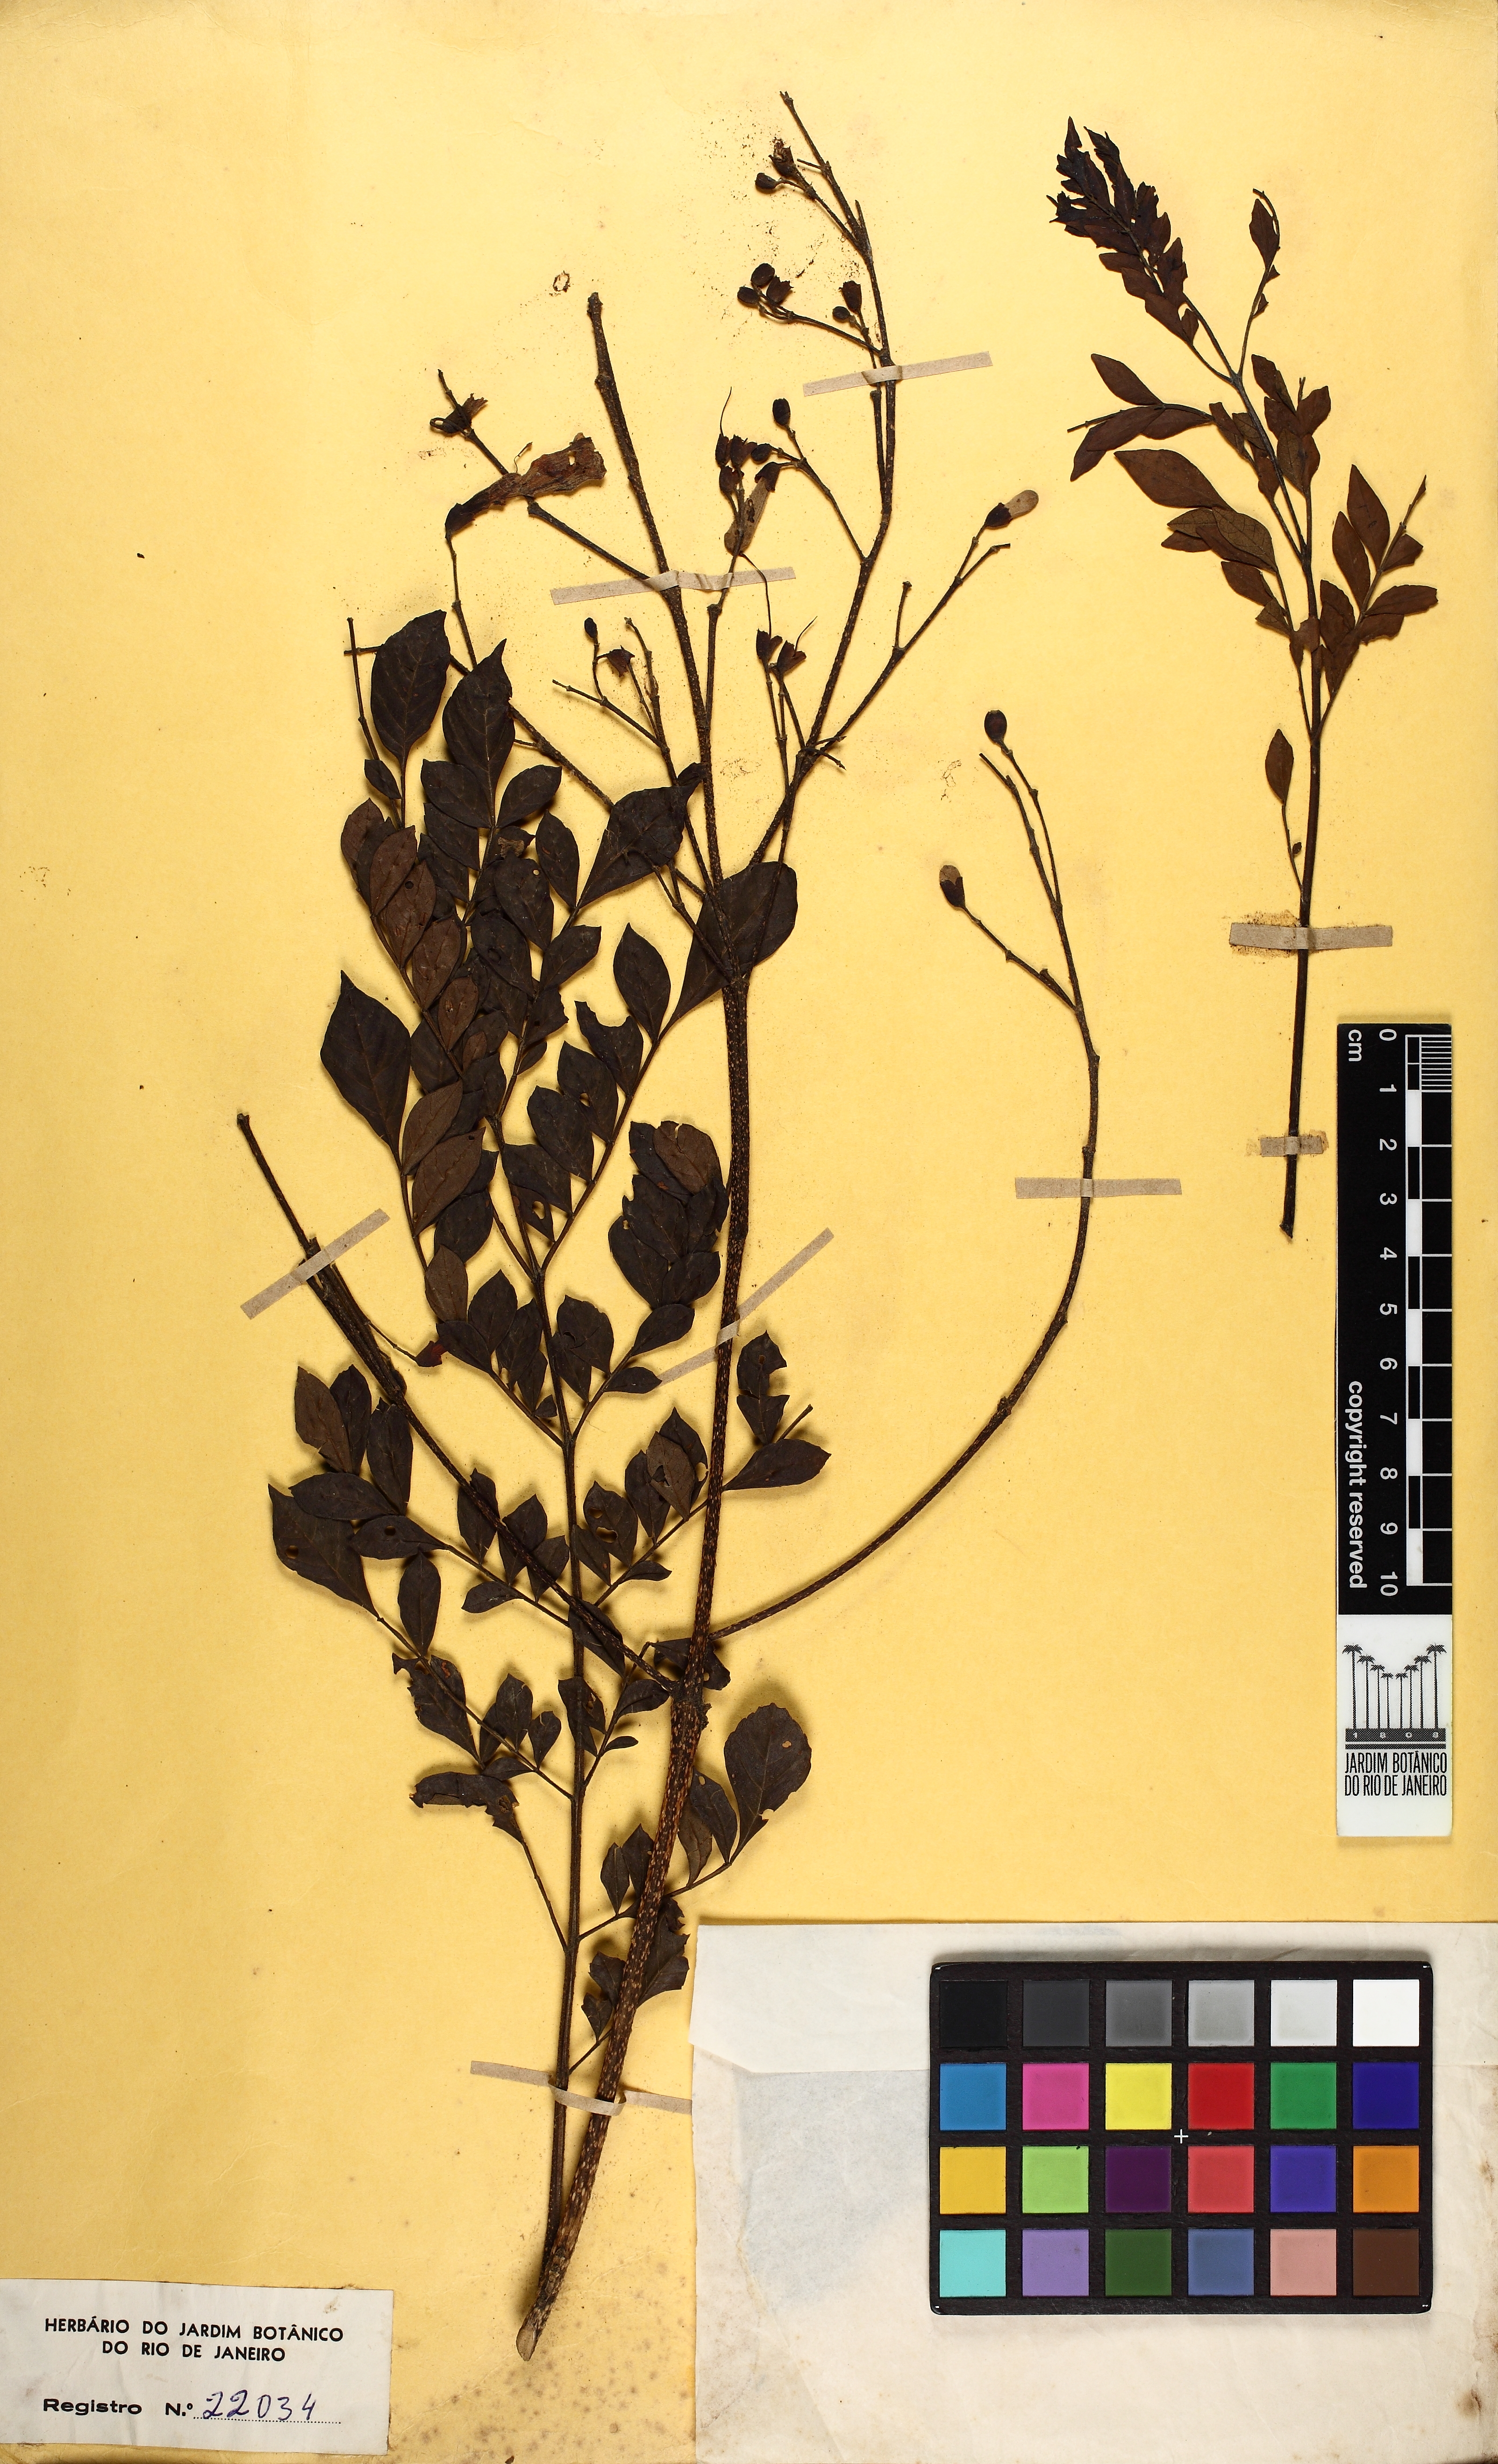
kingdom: Plantae
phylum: Tracheophyta
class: Magnoliopsida
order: Lamiales
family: Bignoniaceae
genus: Jacaranda
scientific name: Jacaranda montana
